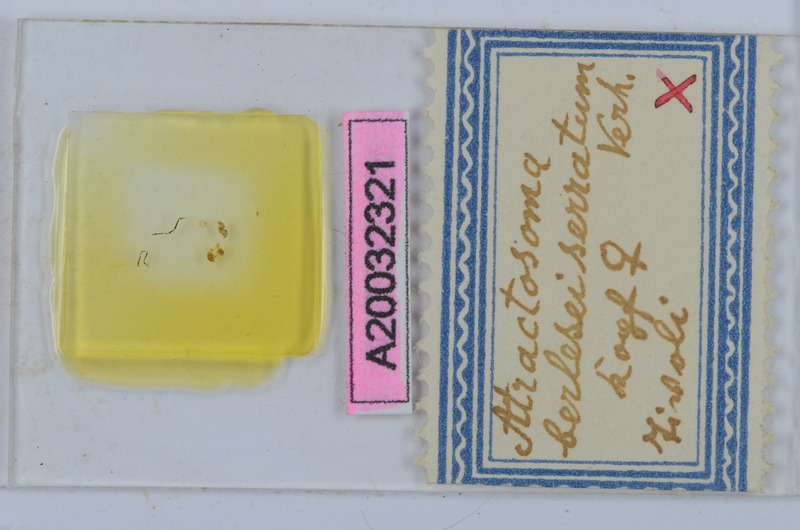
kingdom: Animalia
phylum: Arthropoda
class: Diplopoda
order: Chordeumatida
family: Craspedosomatidae
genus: Atractosoma
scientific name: Atractosoma cecconii
